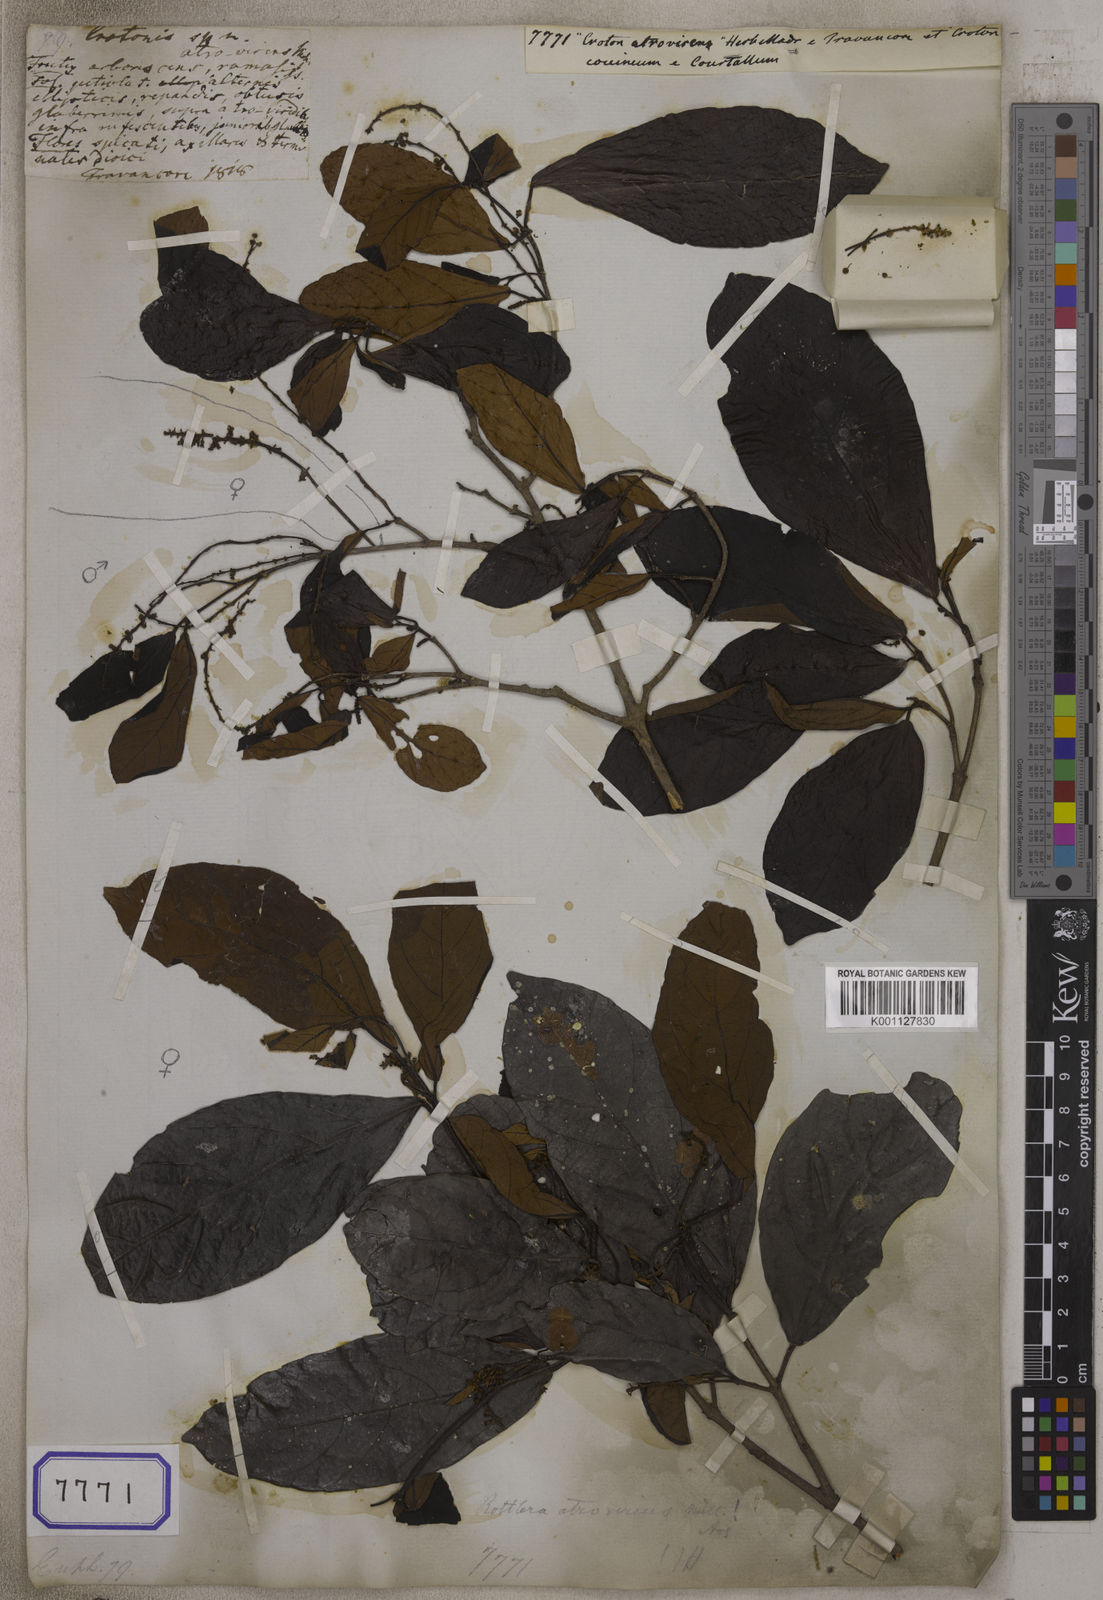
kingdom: Plantae
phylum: Tracheophyta
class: Magnoliopsida
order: Malpighiales
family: Euphorbiaceae
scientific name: Euphorbiaceae
